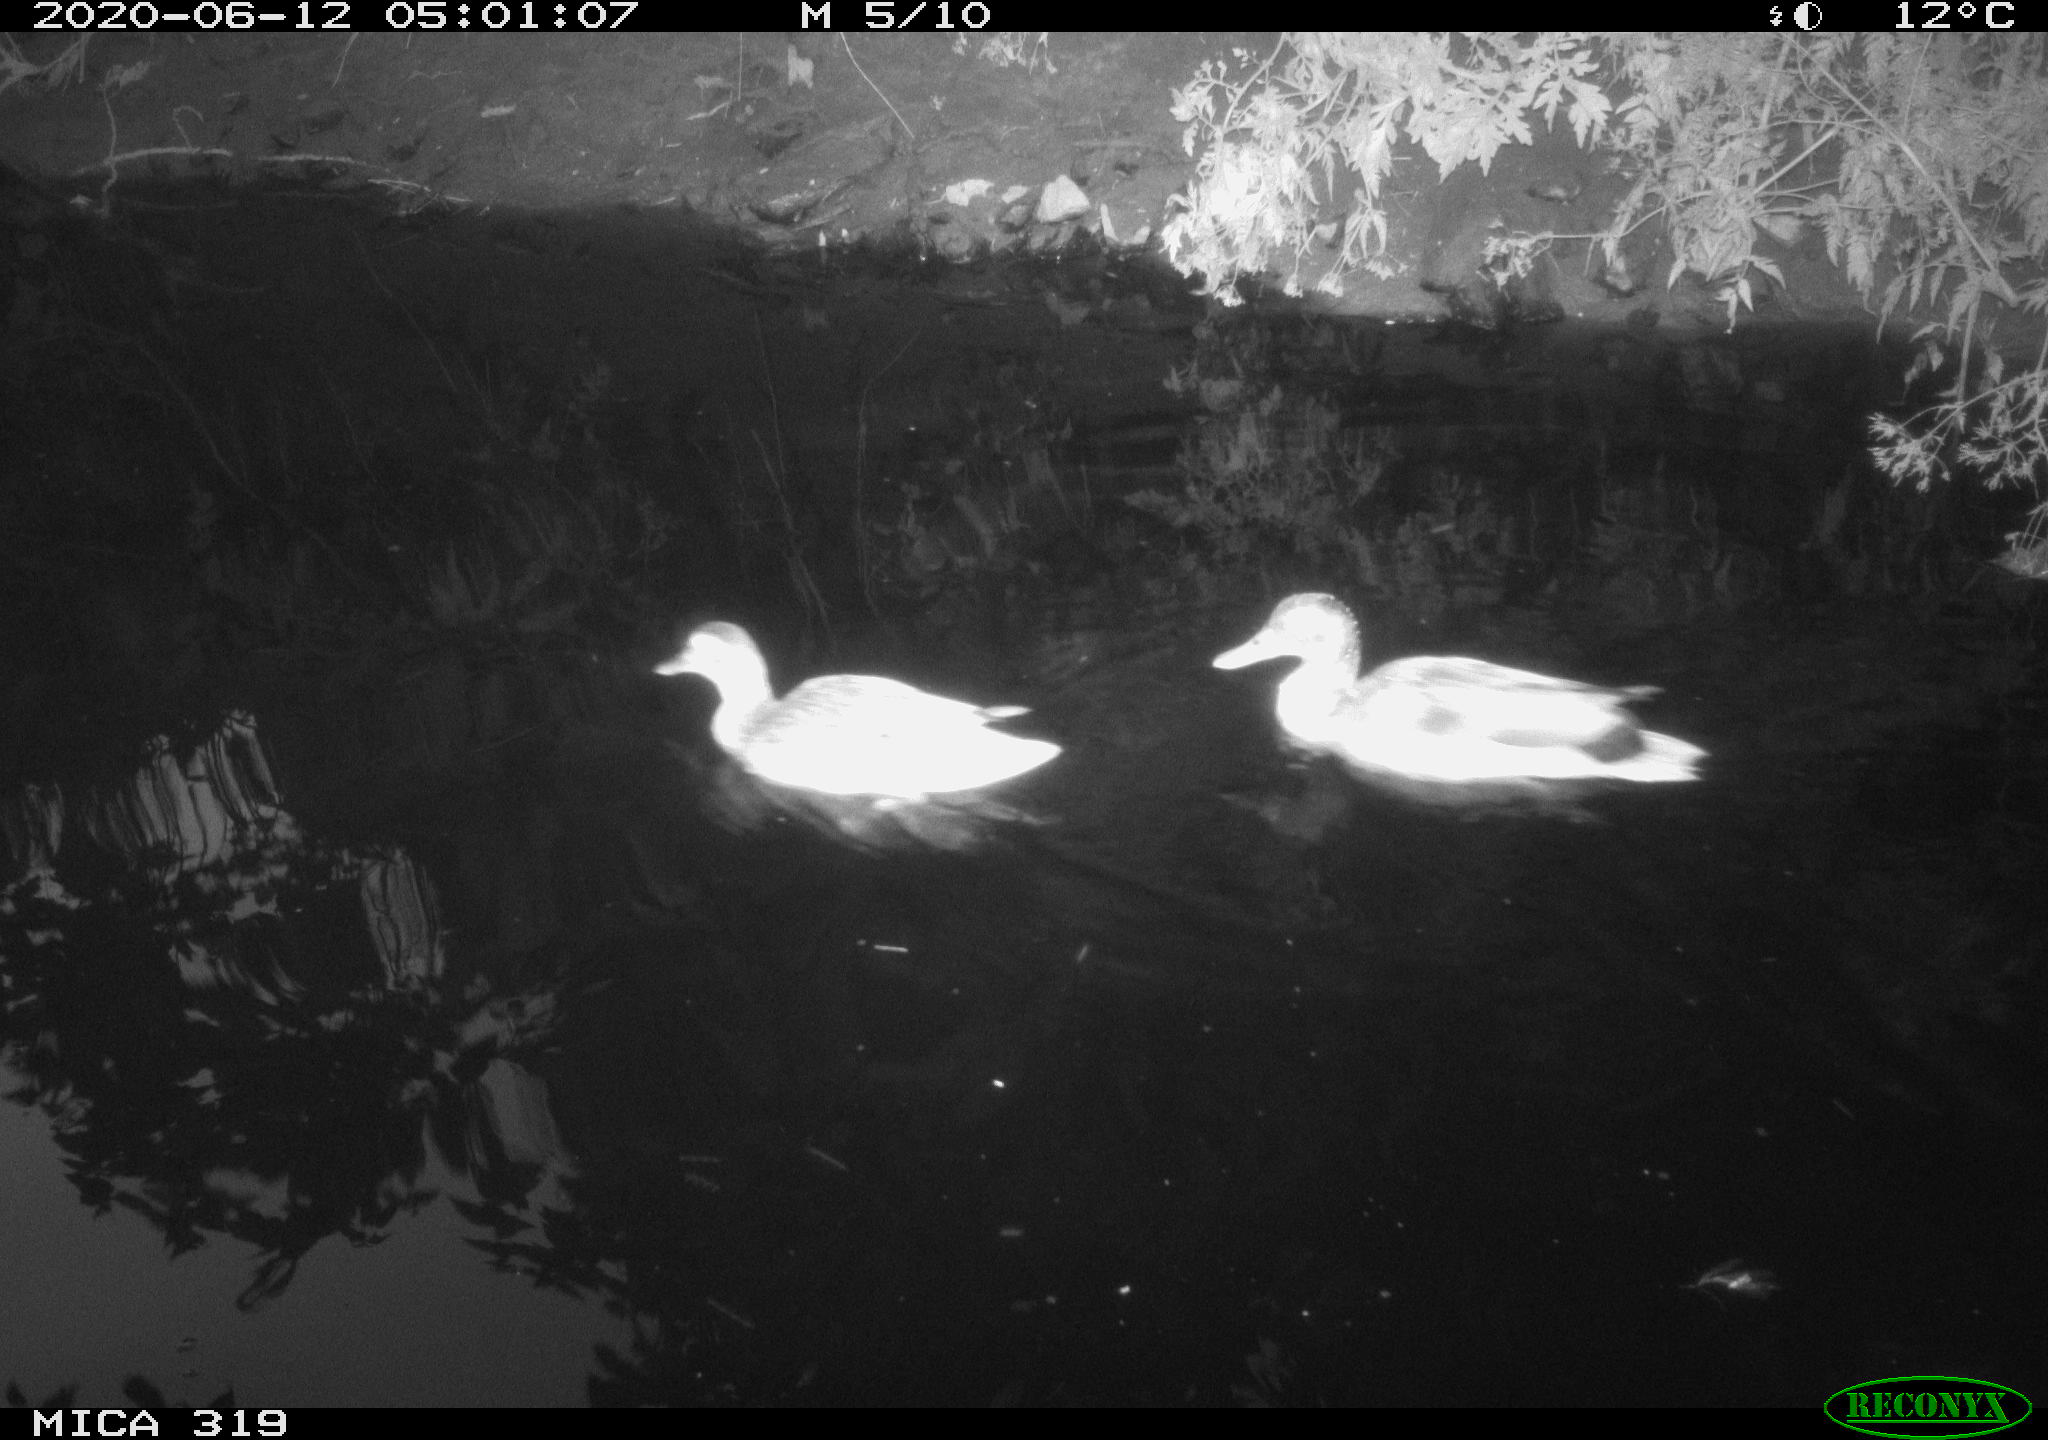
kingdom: Animalia
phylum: Chordata
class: Aves
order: Anseriformes
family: Anatidae
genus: Anas
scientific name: Anas platyrhynchos
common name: Mallard
